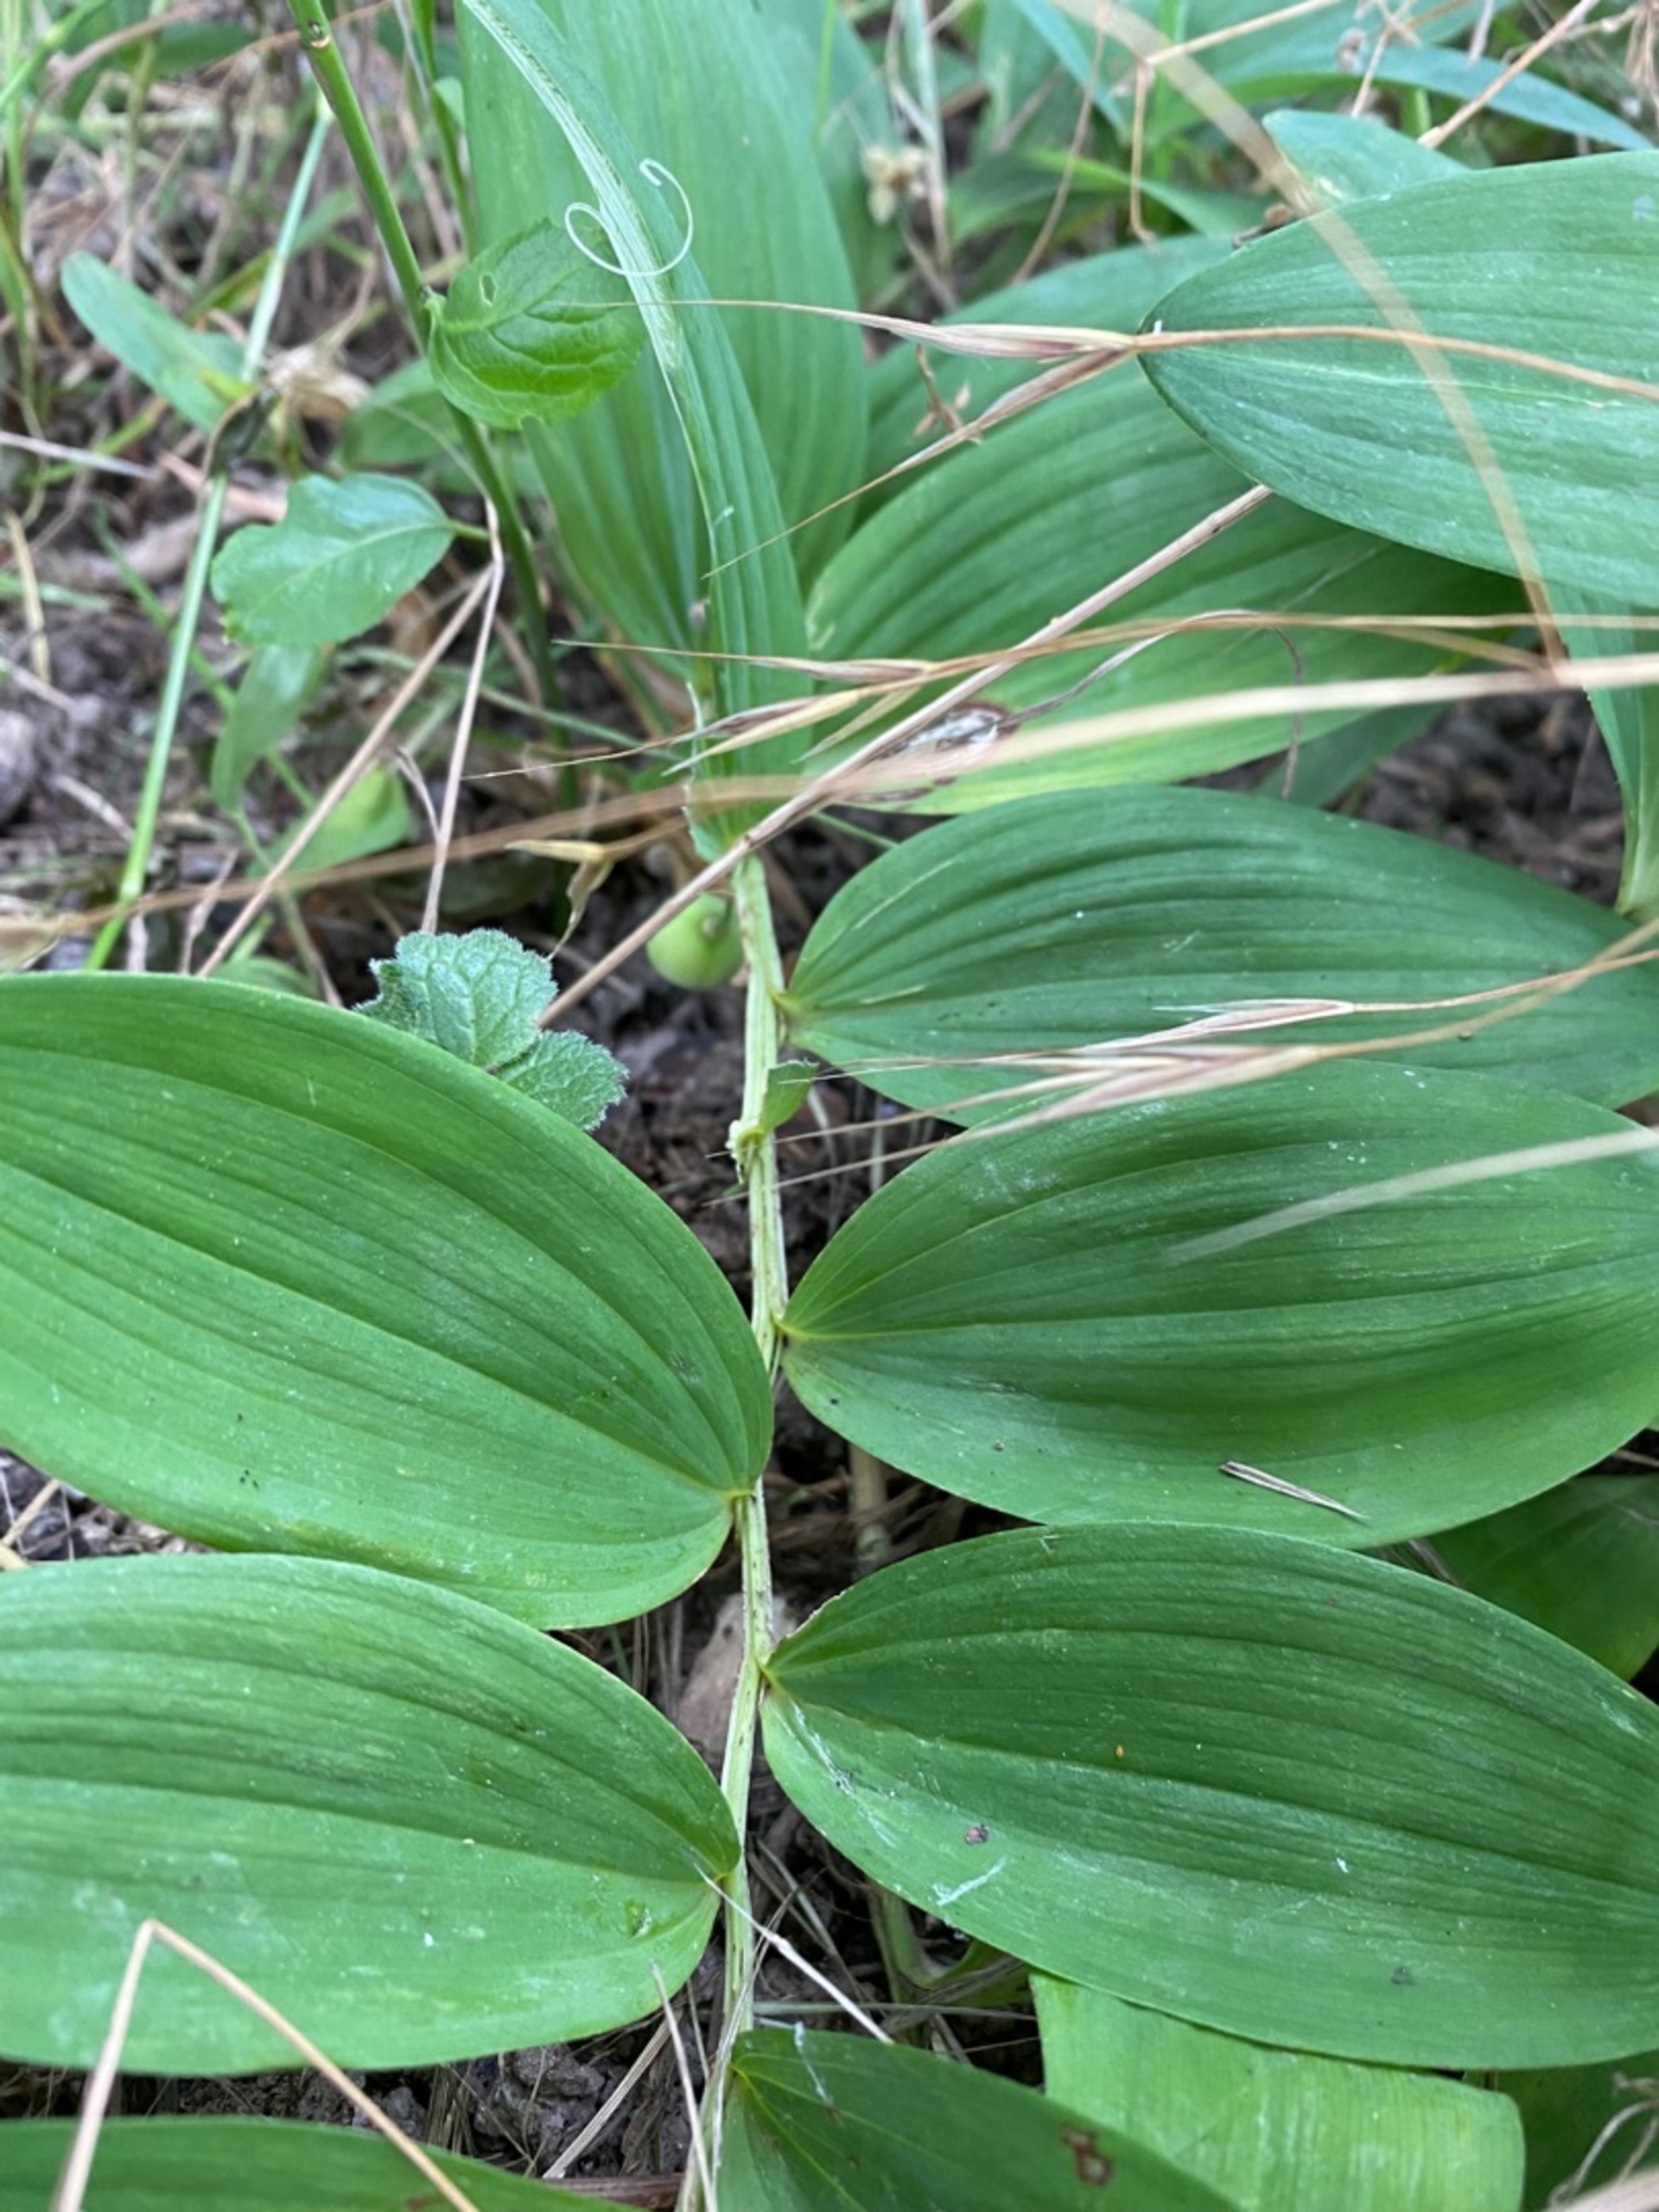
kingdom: Plantae
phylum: Tracheophyta
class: Liliopsida
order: Asparagales
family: Asparagaceae
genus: Polygonatum
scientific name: Polygonatum odoratum
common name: Kantet konval
